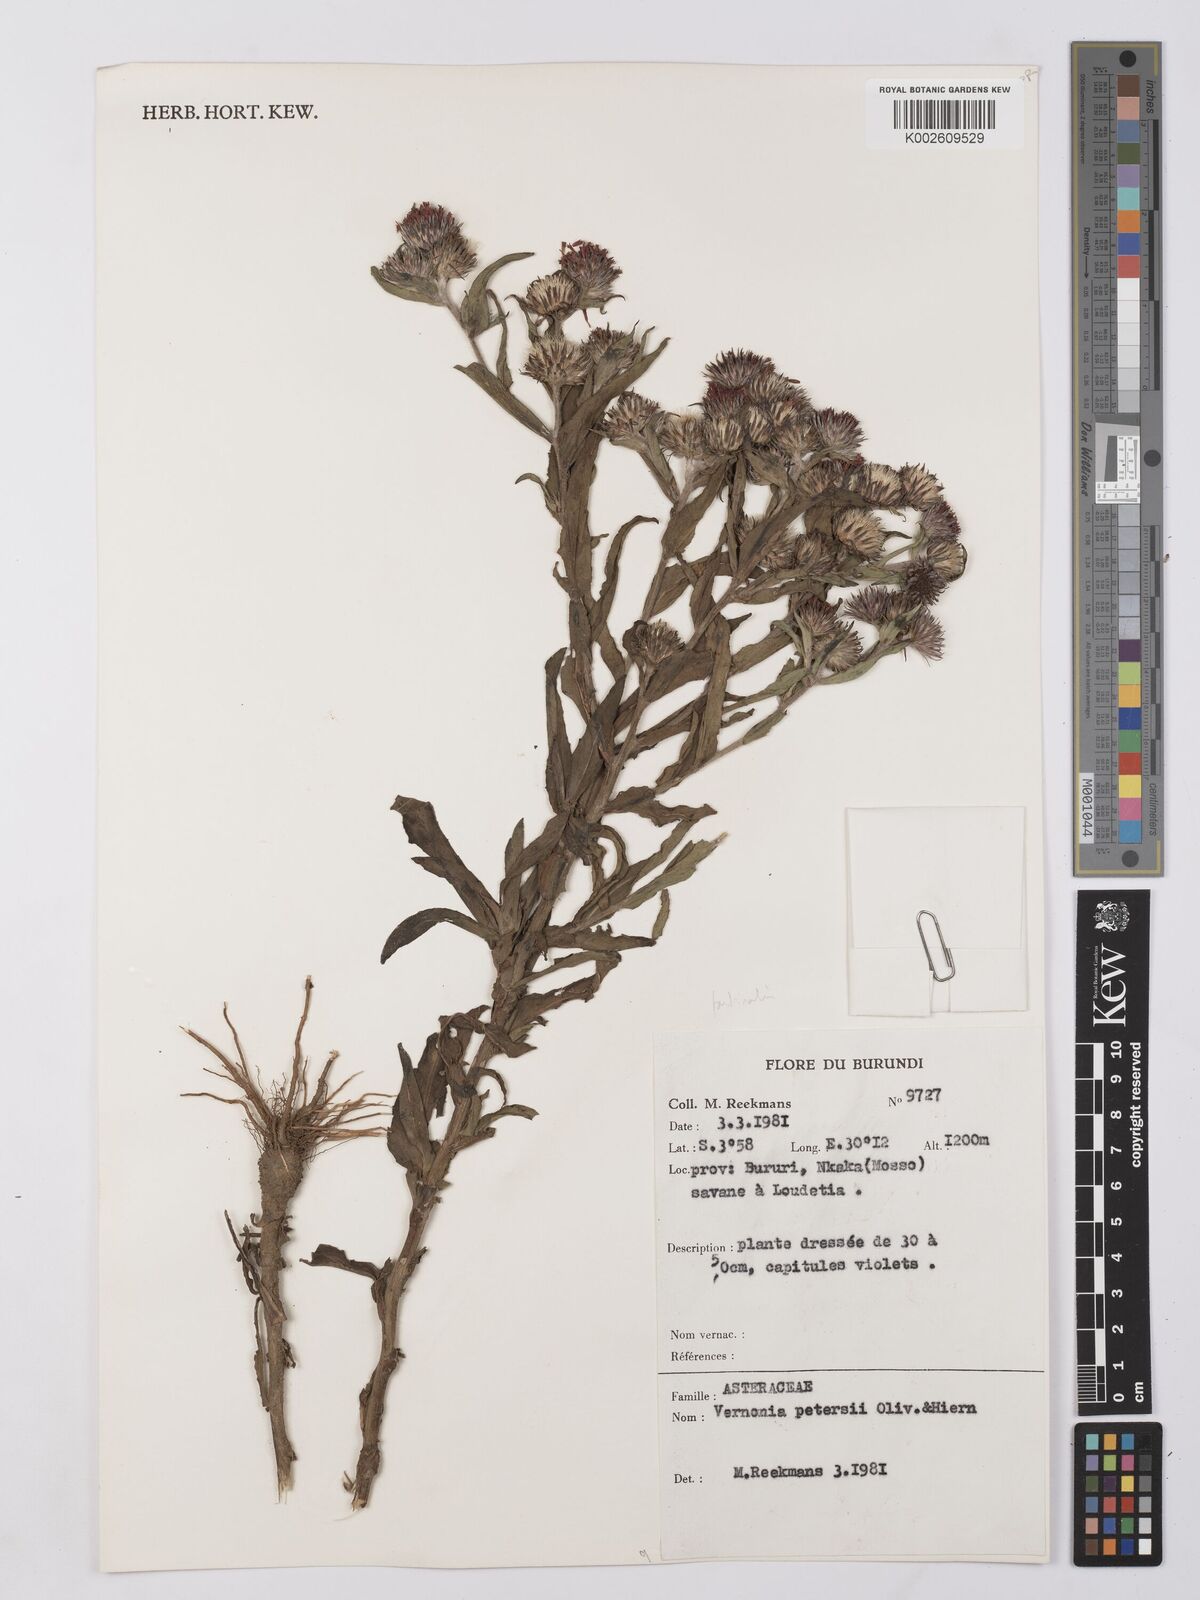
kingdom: Plantae
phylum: Tracheophyta
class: Magnoliopsida
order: Asterales
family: Asteraceae
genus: Vernonia
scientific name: Vernonia
